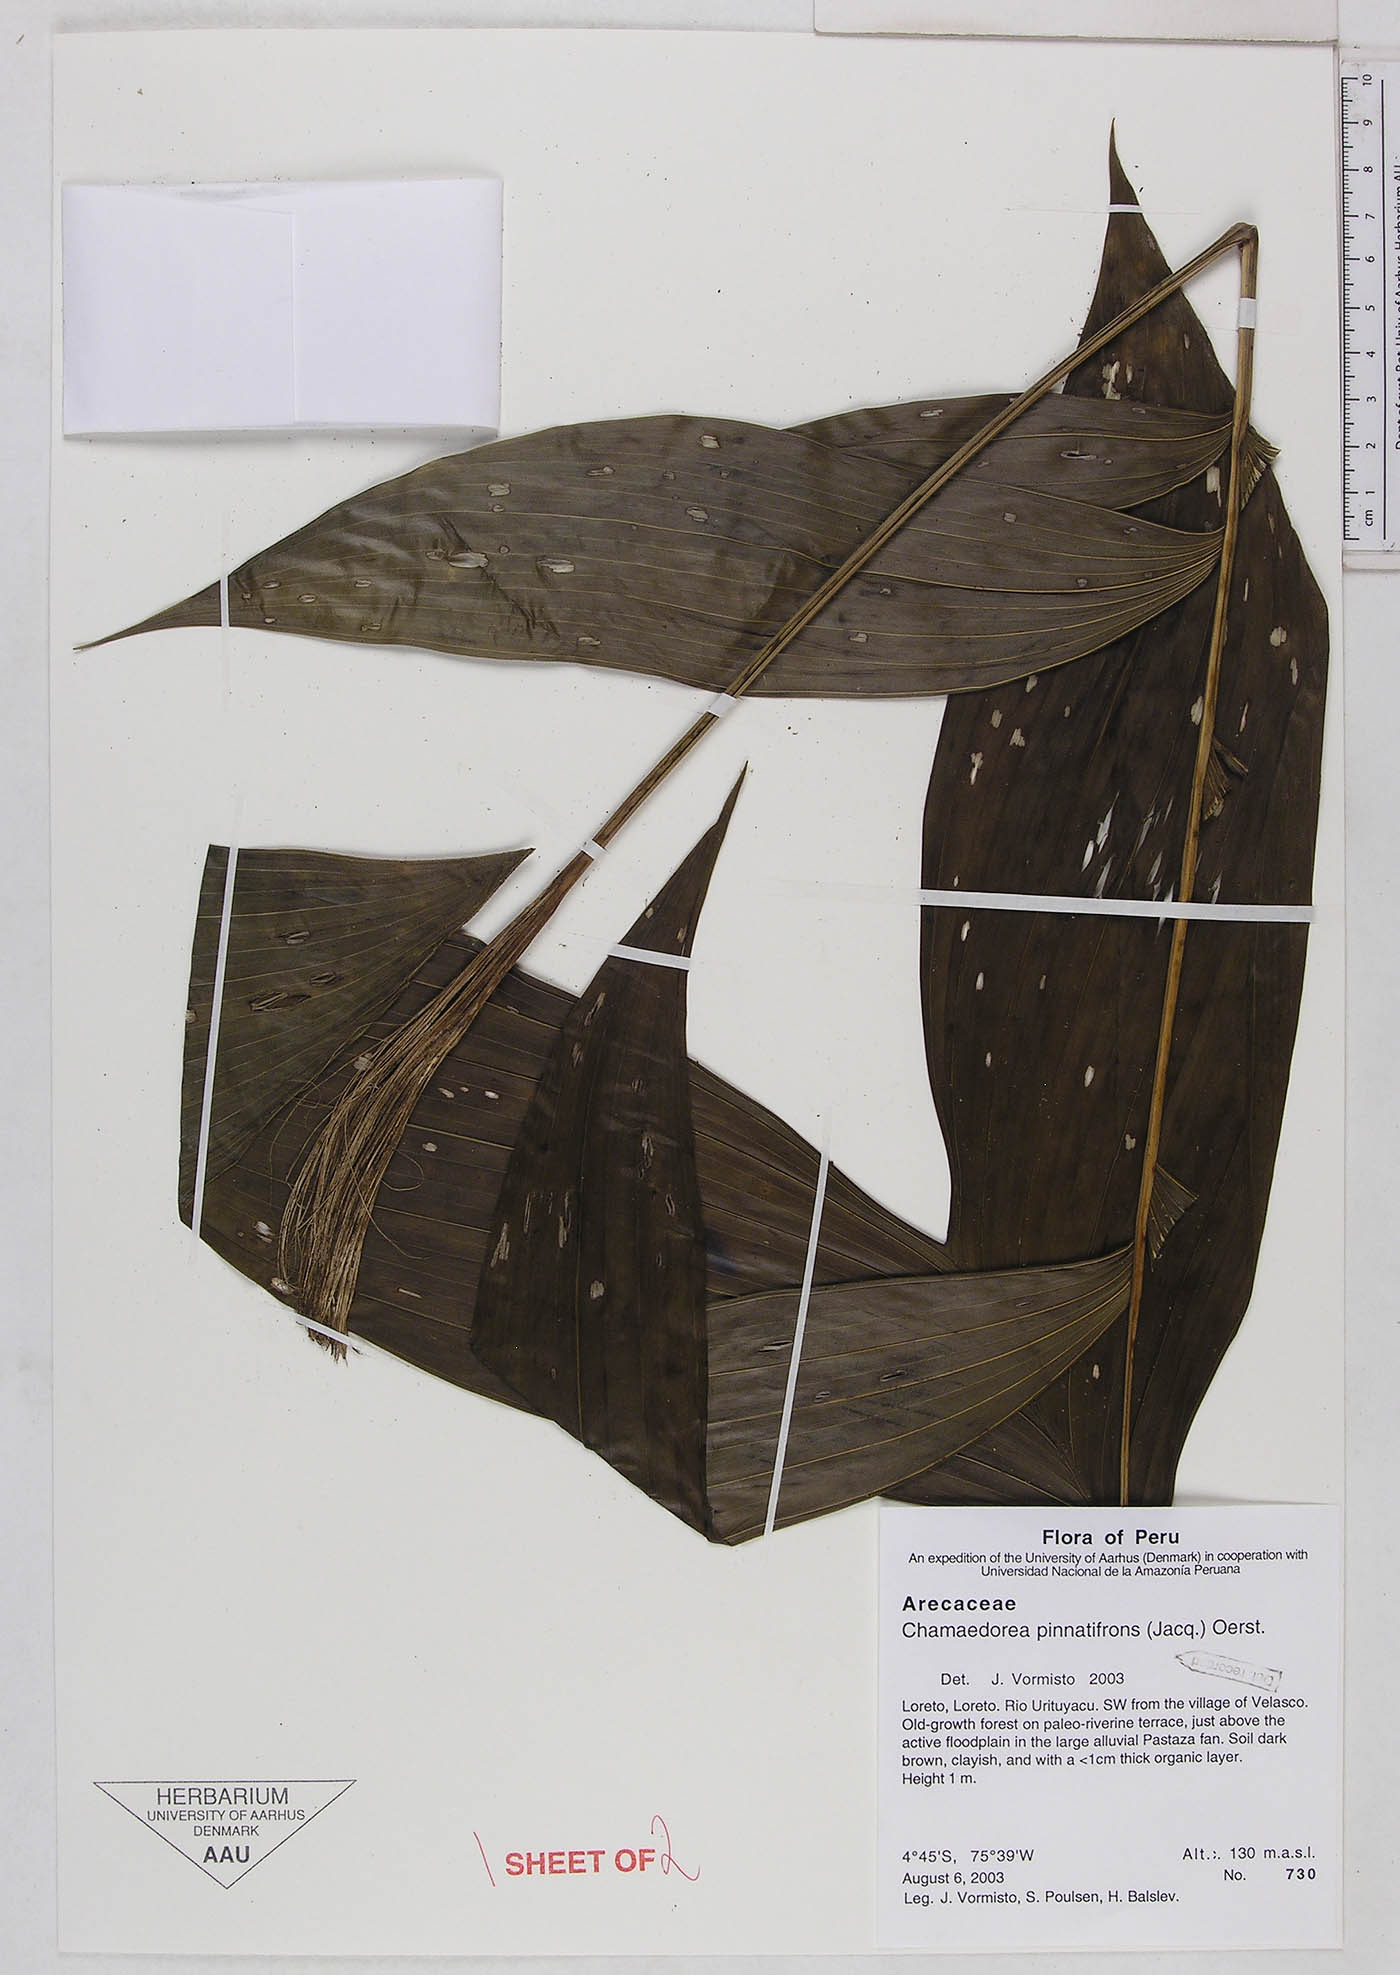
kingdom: Plantae
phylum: Tracheophyta
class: Liliopsida
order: Arecales
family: Arecaceae
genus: Chamaedorea
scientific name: Chamaedorea pinnatifrons
